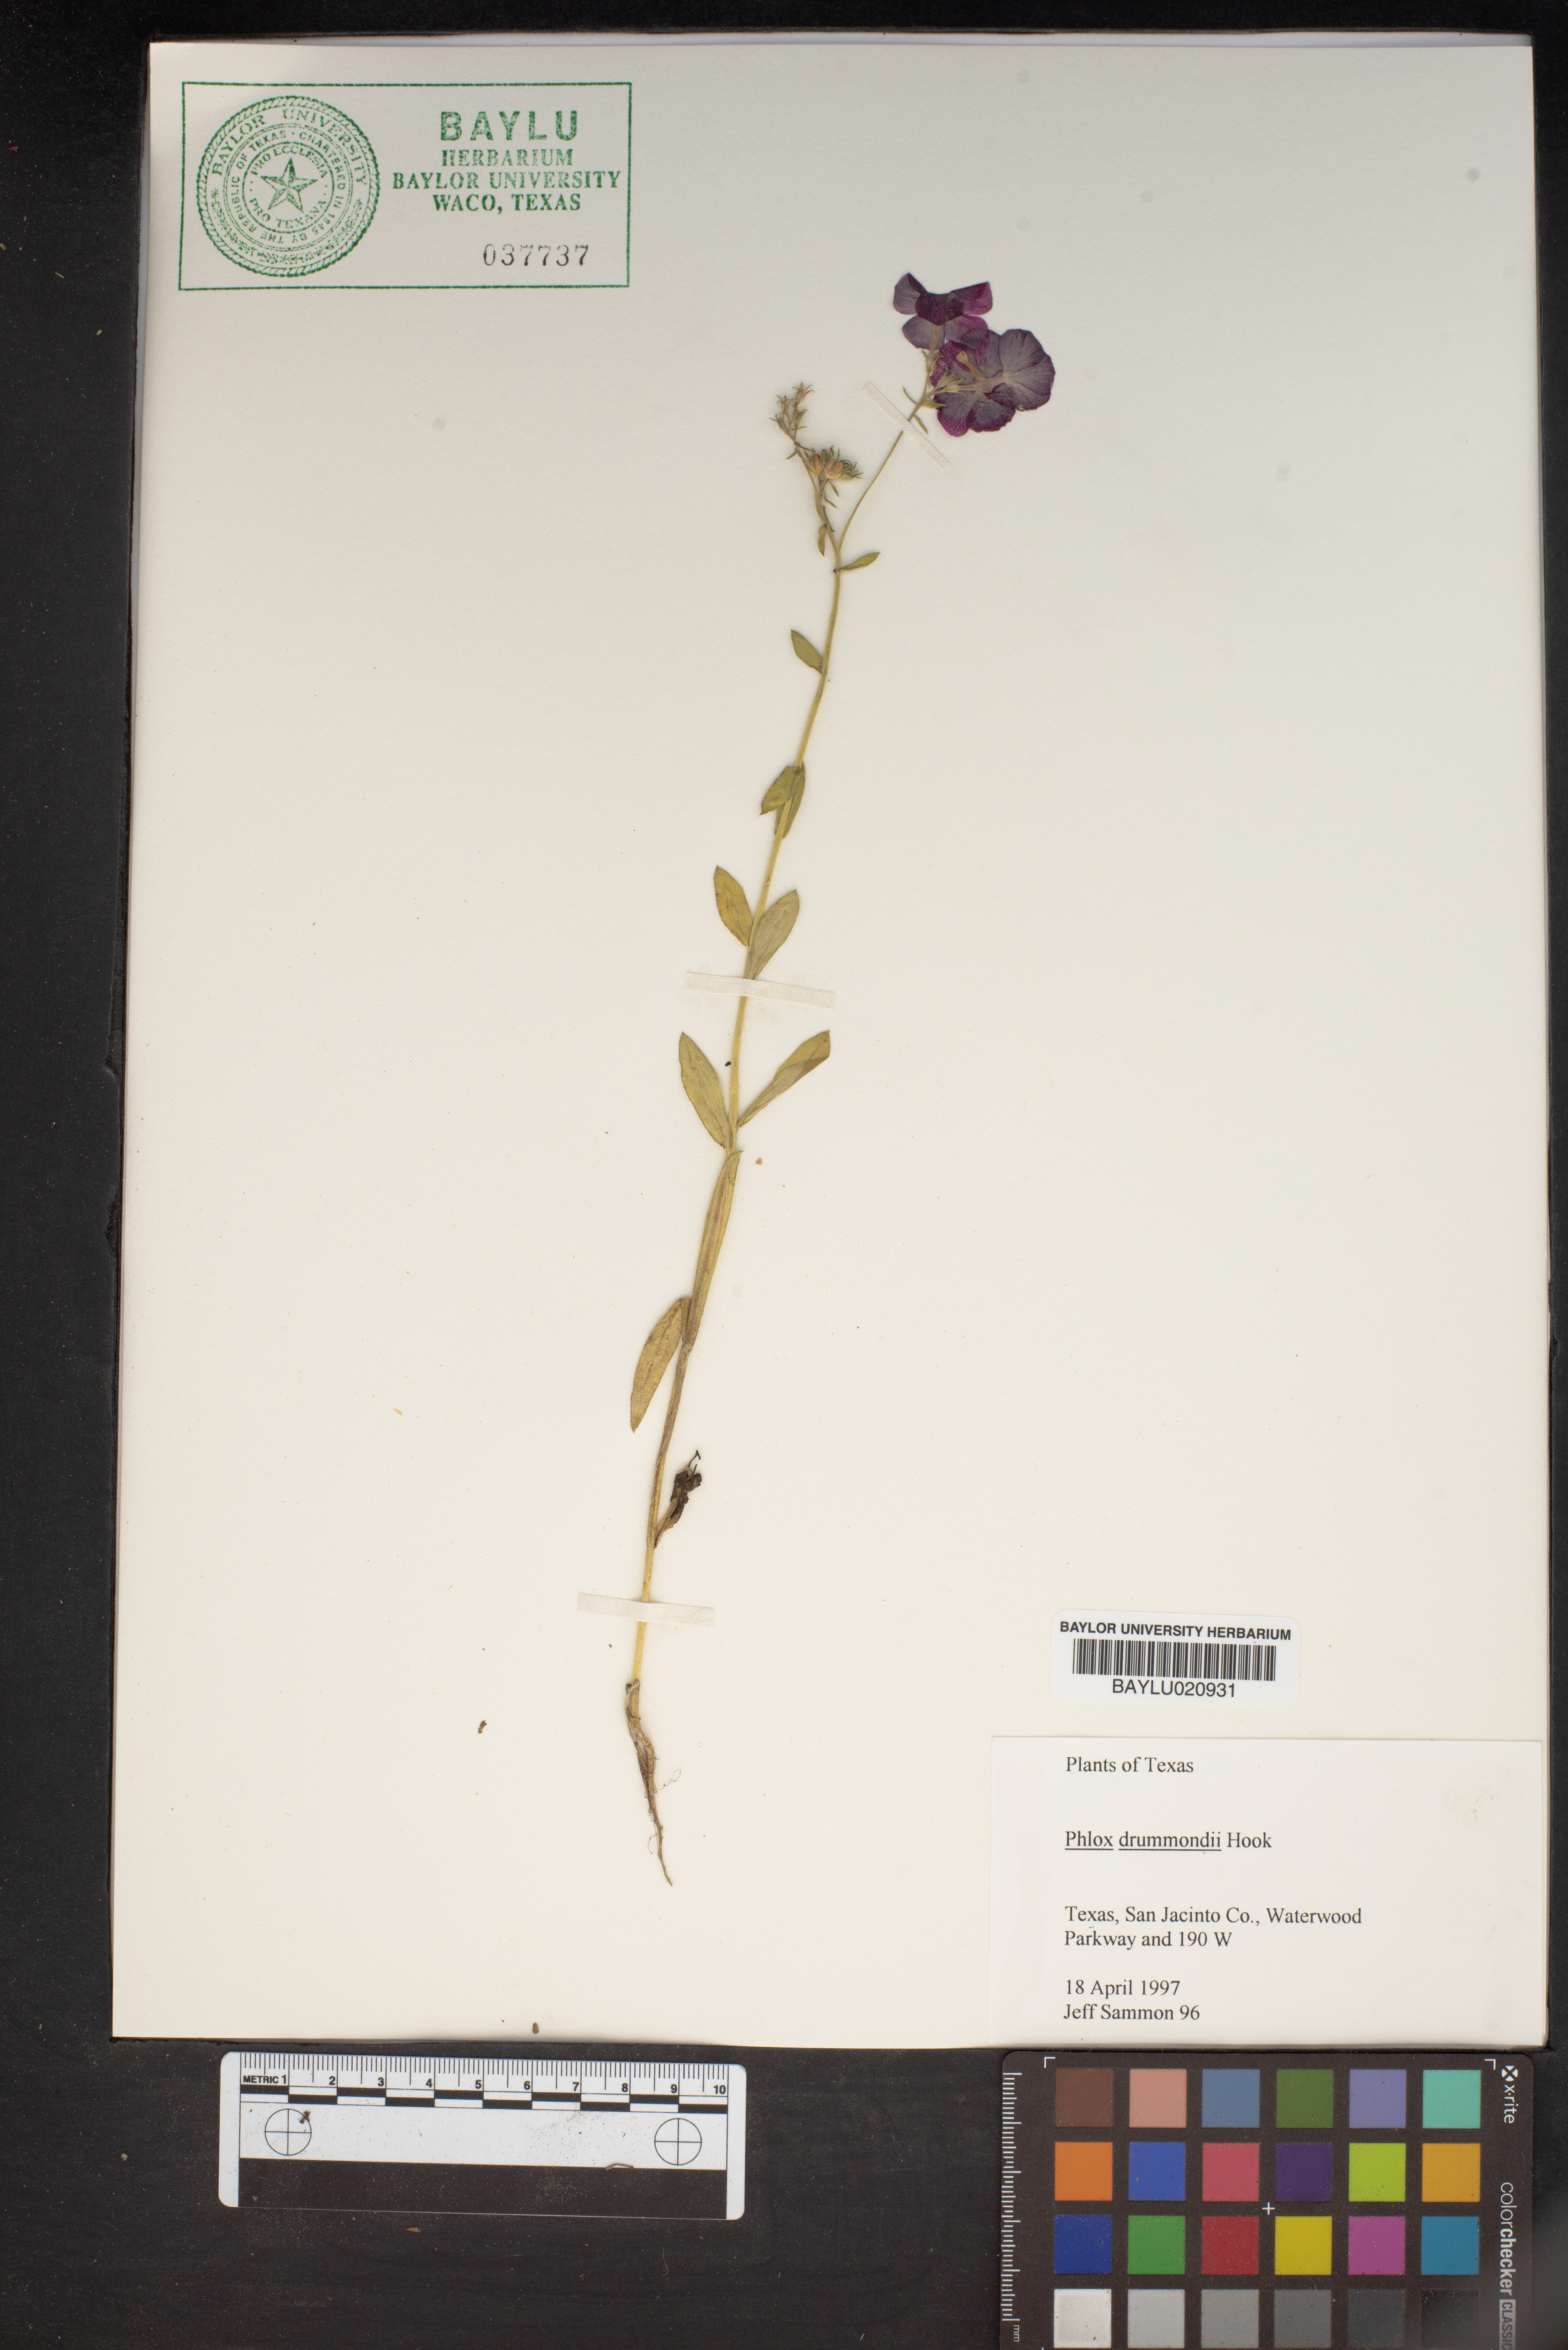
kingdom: Plantae
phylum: Tracheophyta
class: Magnoliopsida
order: Ericales
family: Polemoniaceae
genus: Phlox
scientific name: Phlox drummondii
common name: Drummond's phlox
